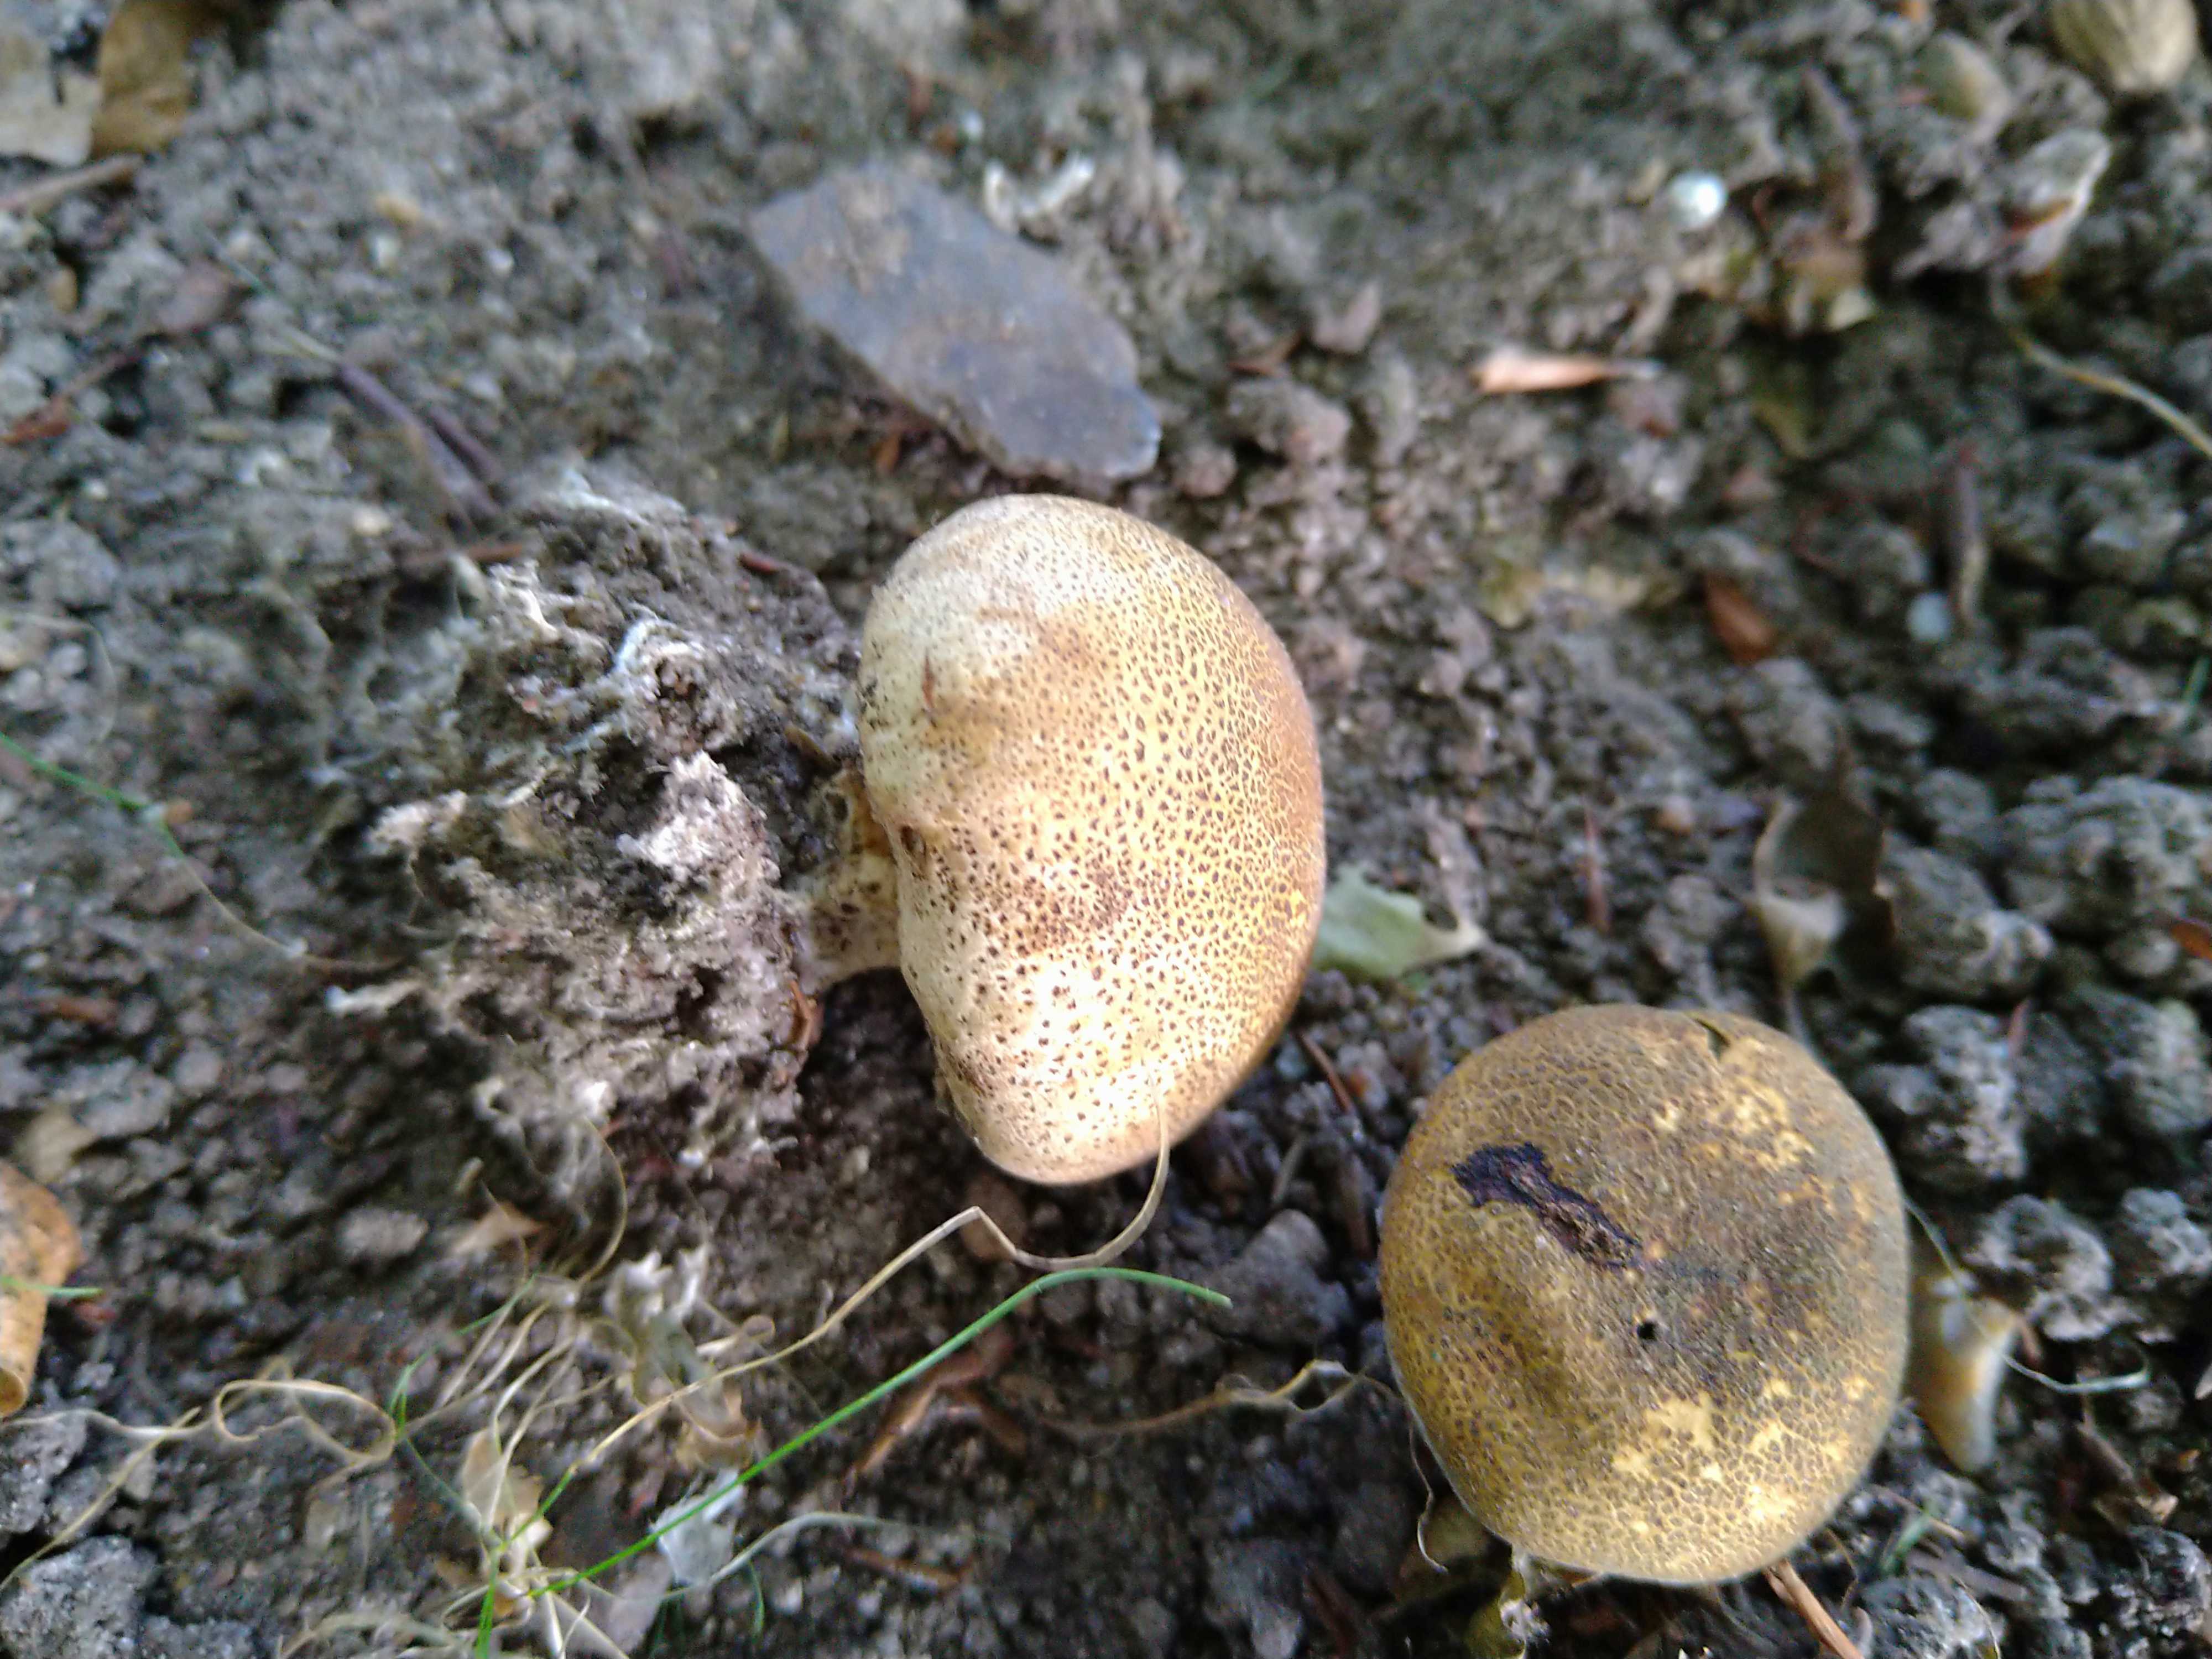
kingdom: Fungi
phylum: Basidiomycota
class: Agaricomycetes
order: Boletales
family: Sclerodermataceae
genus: Scleroderma
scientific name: Scleroderma areolatum
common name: plettet bruskbold
